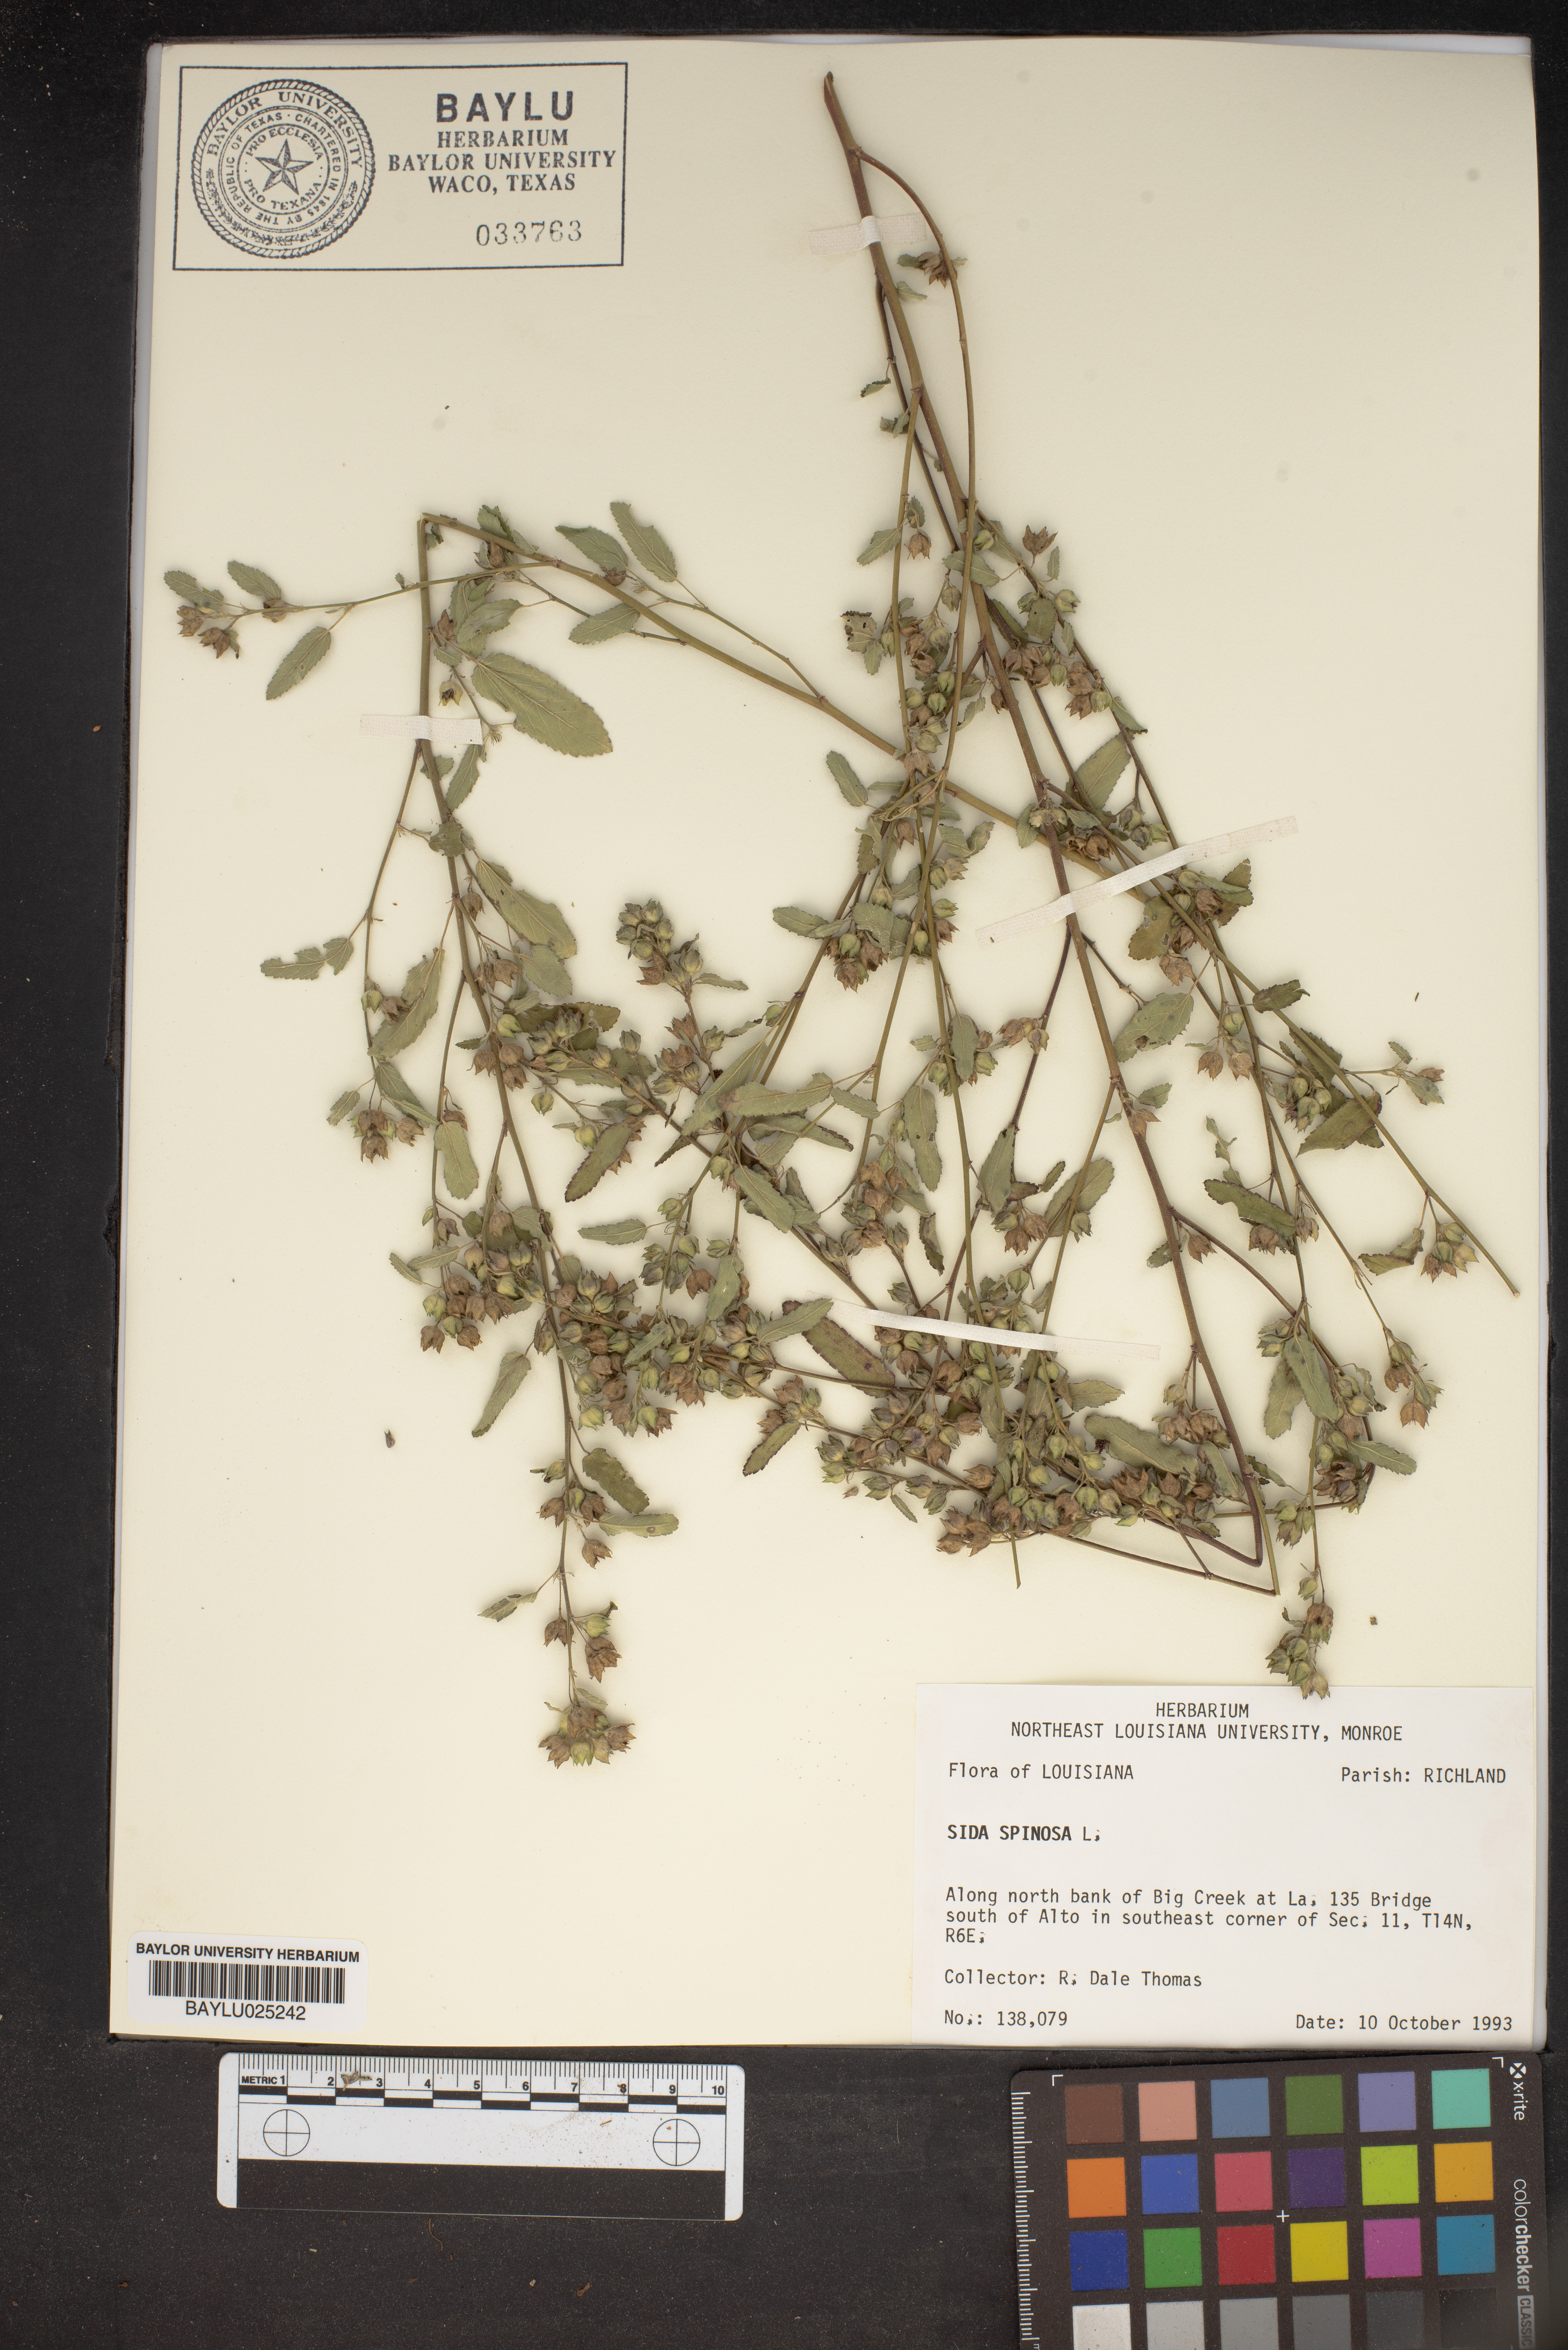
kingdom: Plantae
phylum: Tracheophyta
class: Magnoliopsida
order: Malvales
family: Malvaceae
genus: Sida
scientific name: Sida spinosa
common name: Prickly fanpetals
